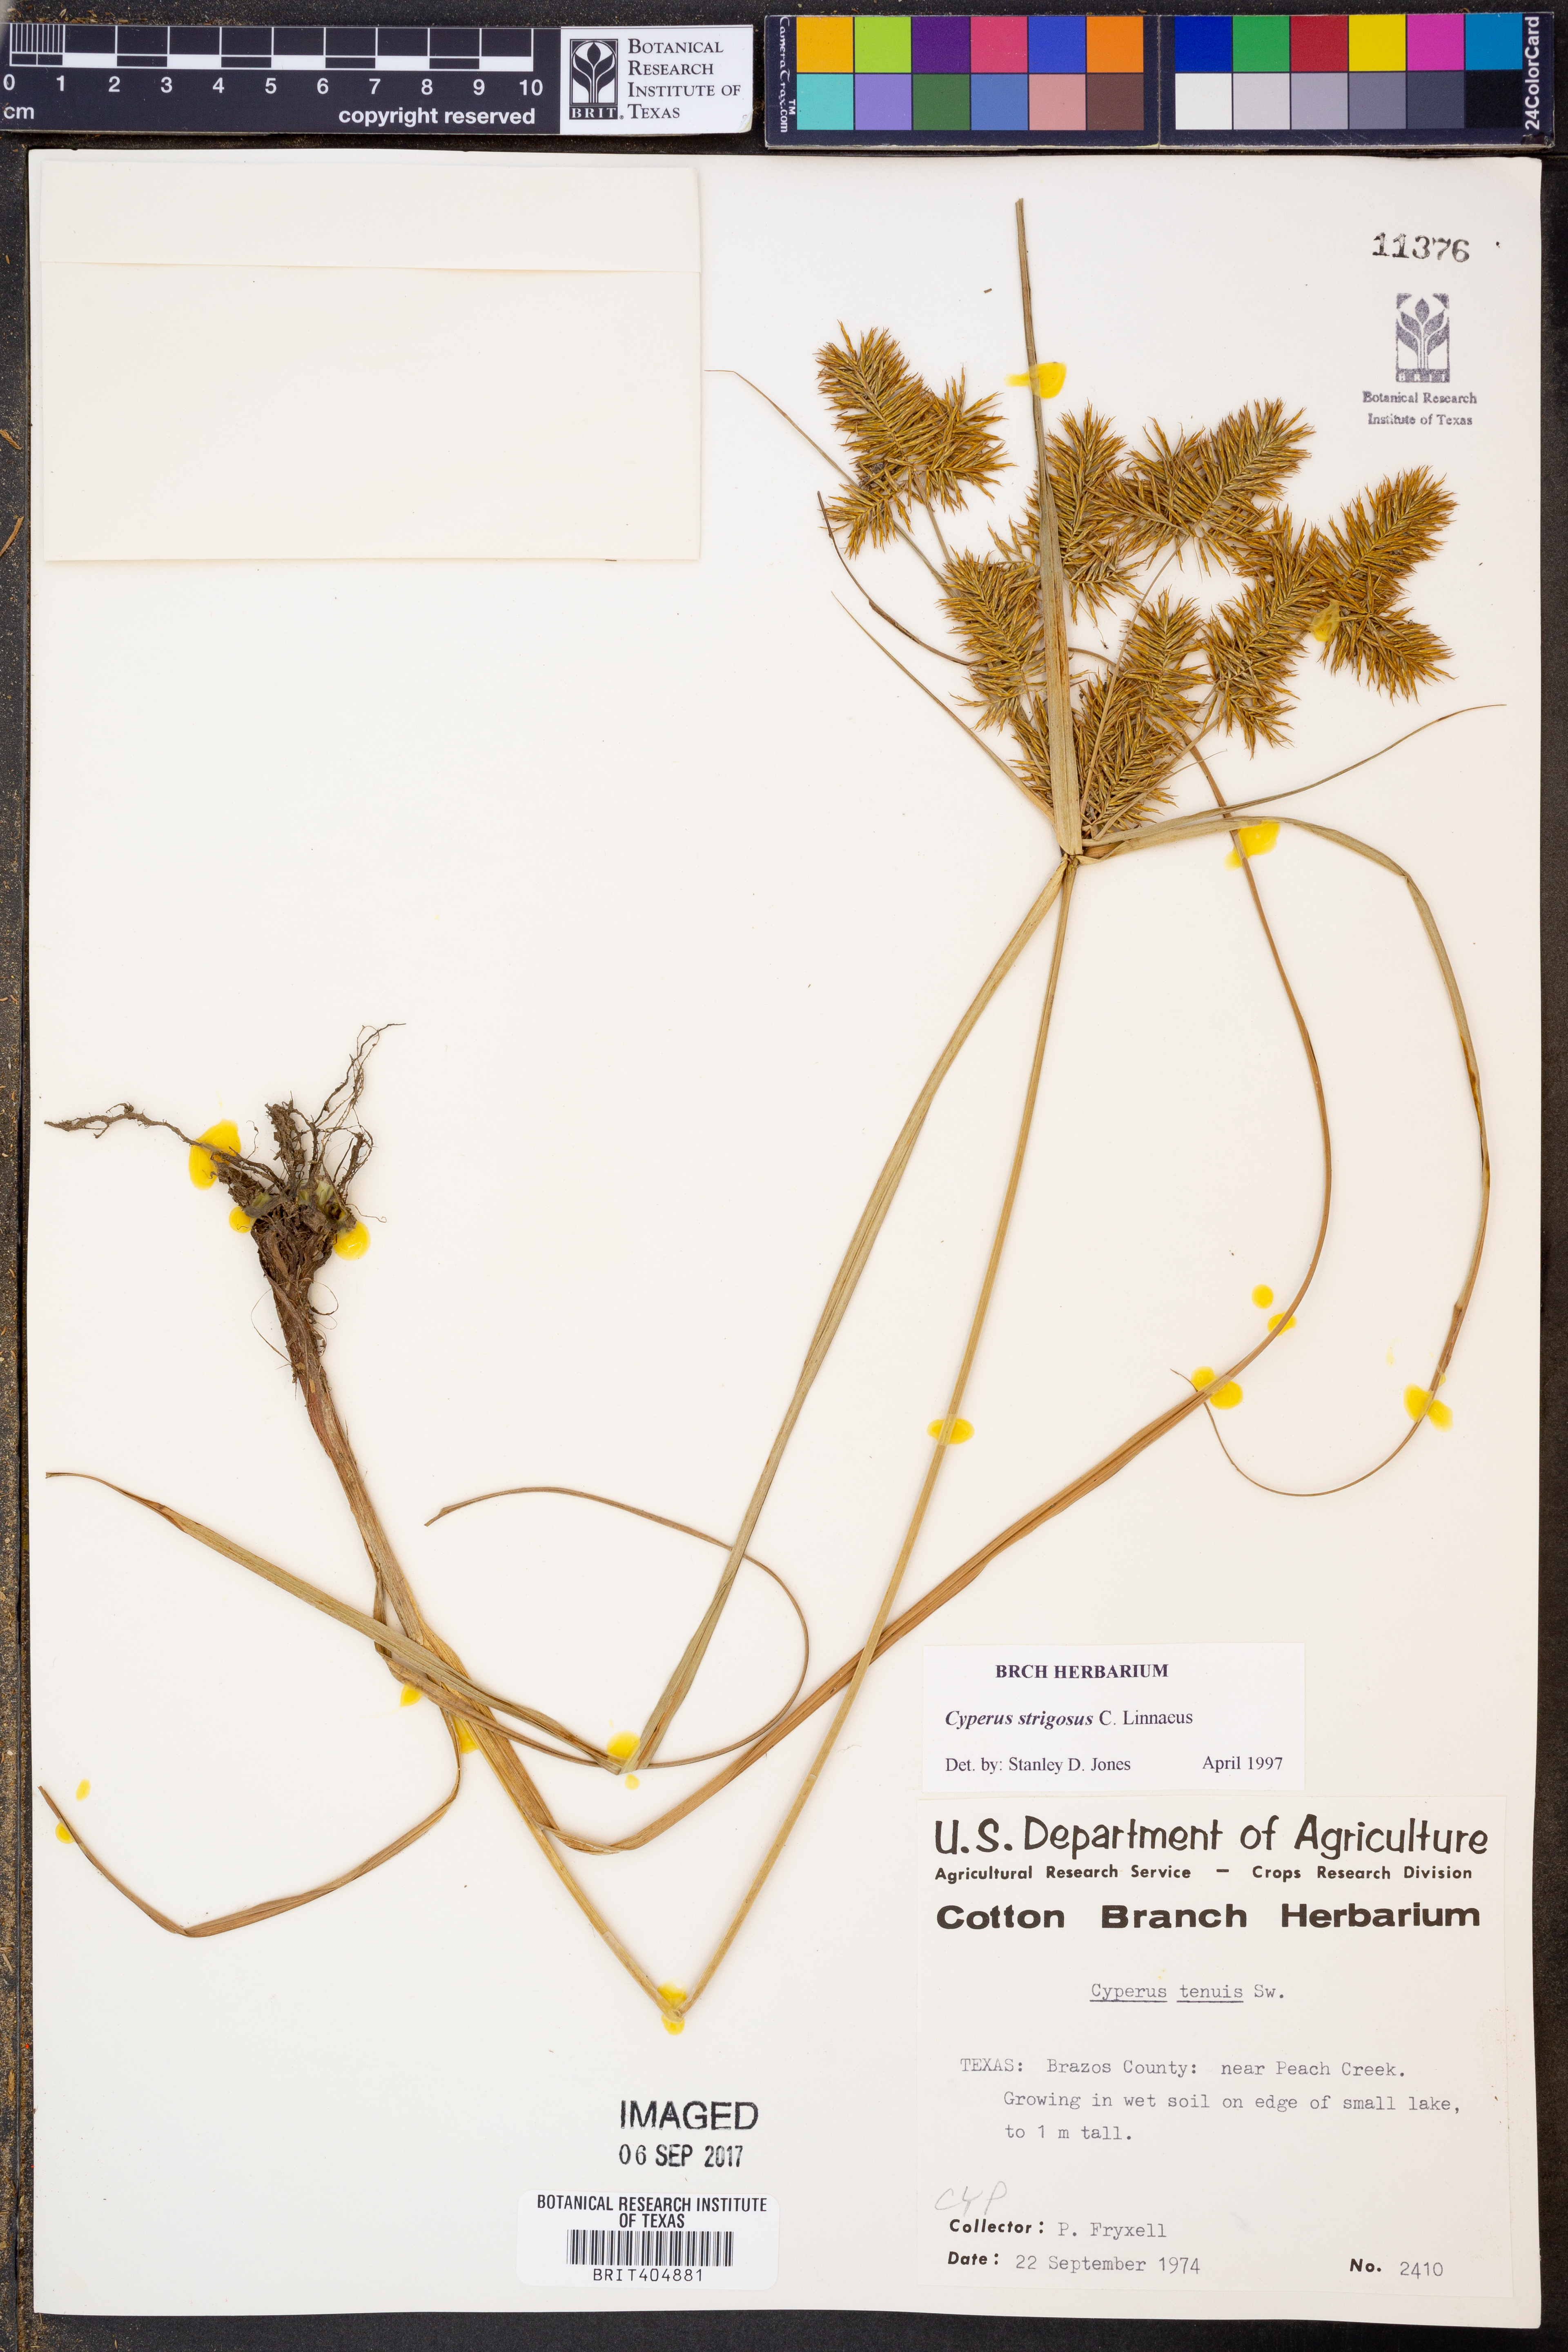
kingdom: Plantae
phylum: Tracheophyta
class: Liliopsida
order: Poales
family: Cyperaceae
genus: Cyperus
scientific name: Cyperus strigosus
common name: False nutsedge
